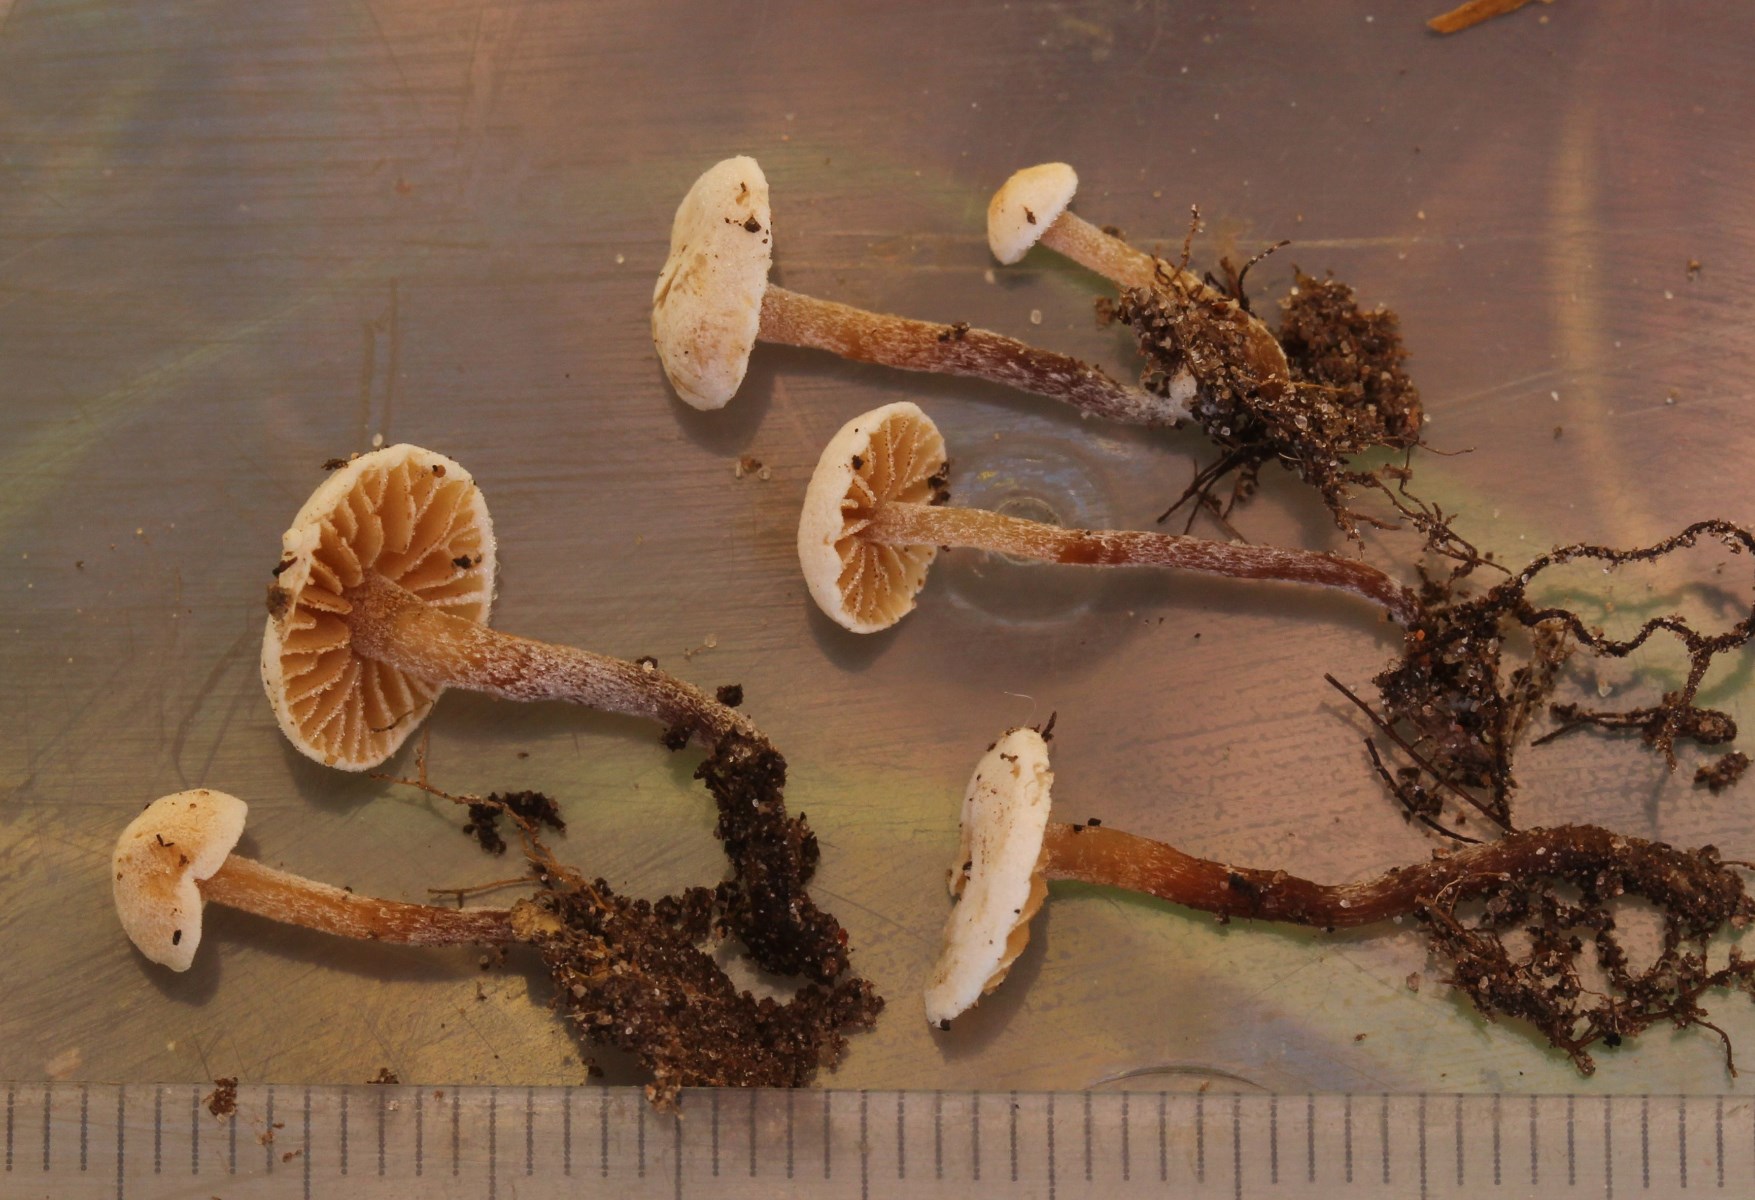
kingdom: Fungi
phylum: Basidiomycota
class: Agaricomycetes
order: Agaricales
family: Hymenogastraceae
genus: Galerina
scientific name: Galerina albotomentosa
